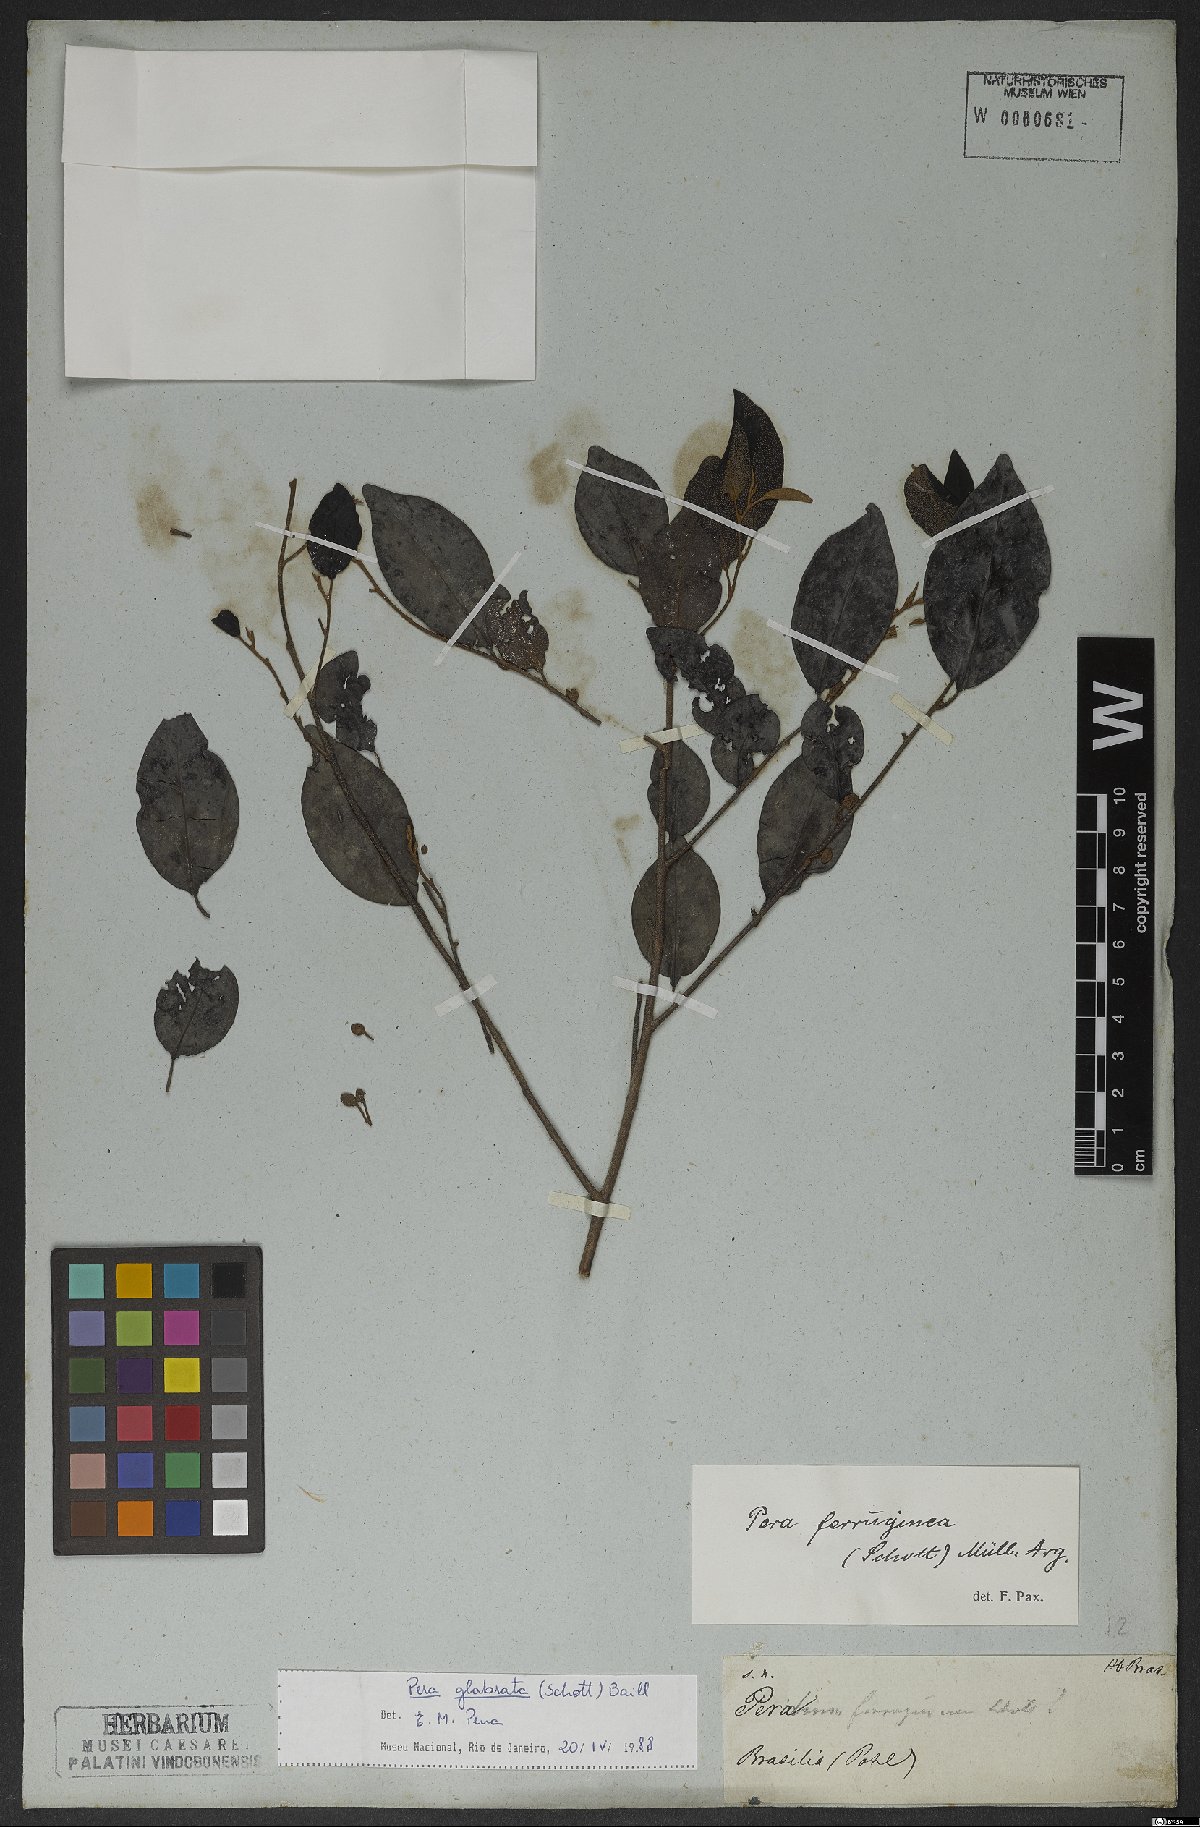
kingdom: Plantae
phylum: Tracheophyta
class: Magnoliopsida
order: Malpighiales
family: Peraceae
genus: Pera
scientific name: Pera glabrata
